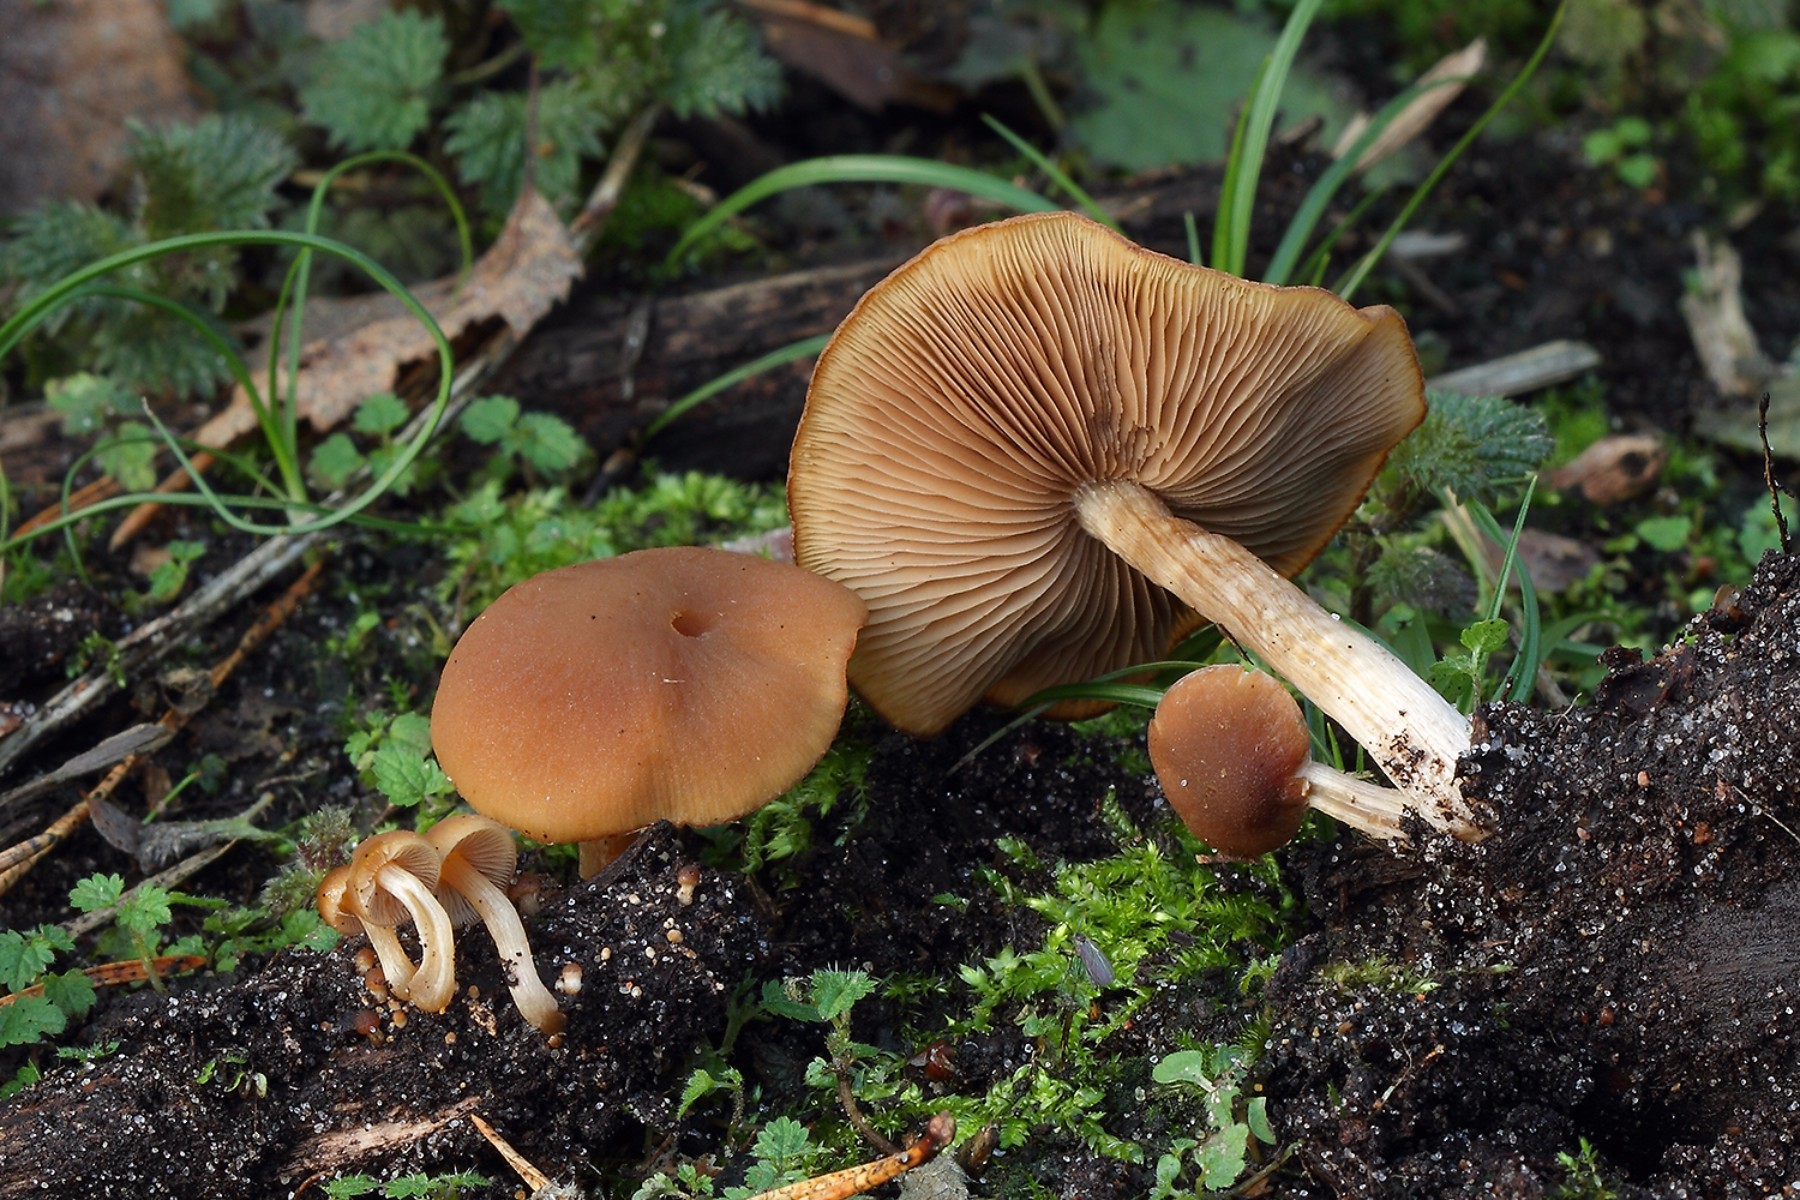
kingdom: Fungi
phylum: Basidiomycota
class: Agaricomycetes
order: Agaricales
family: Psathyrellaceae
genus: Psathyrella
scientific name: Psathyrella piluliformis
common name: lysstokket mørkhat
